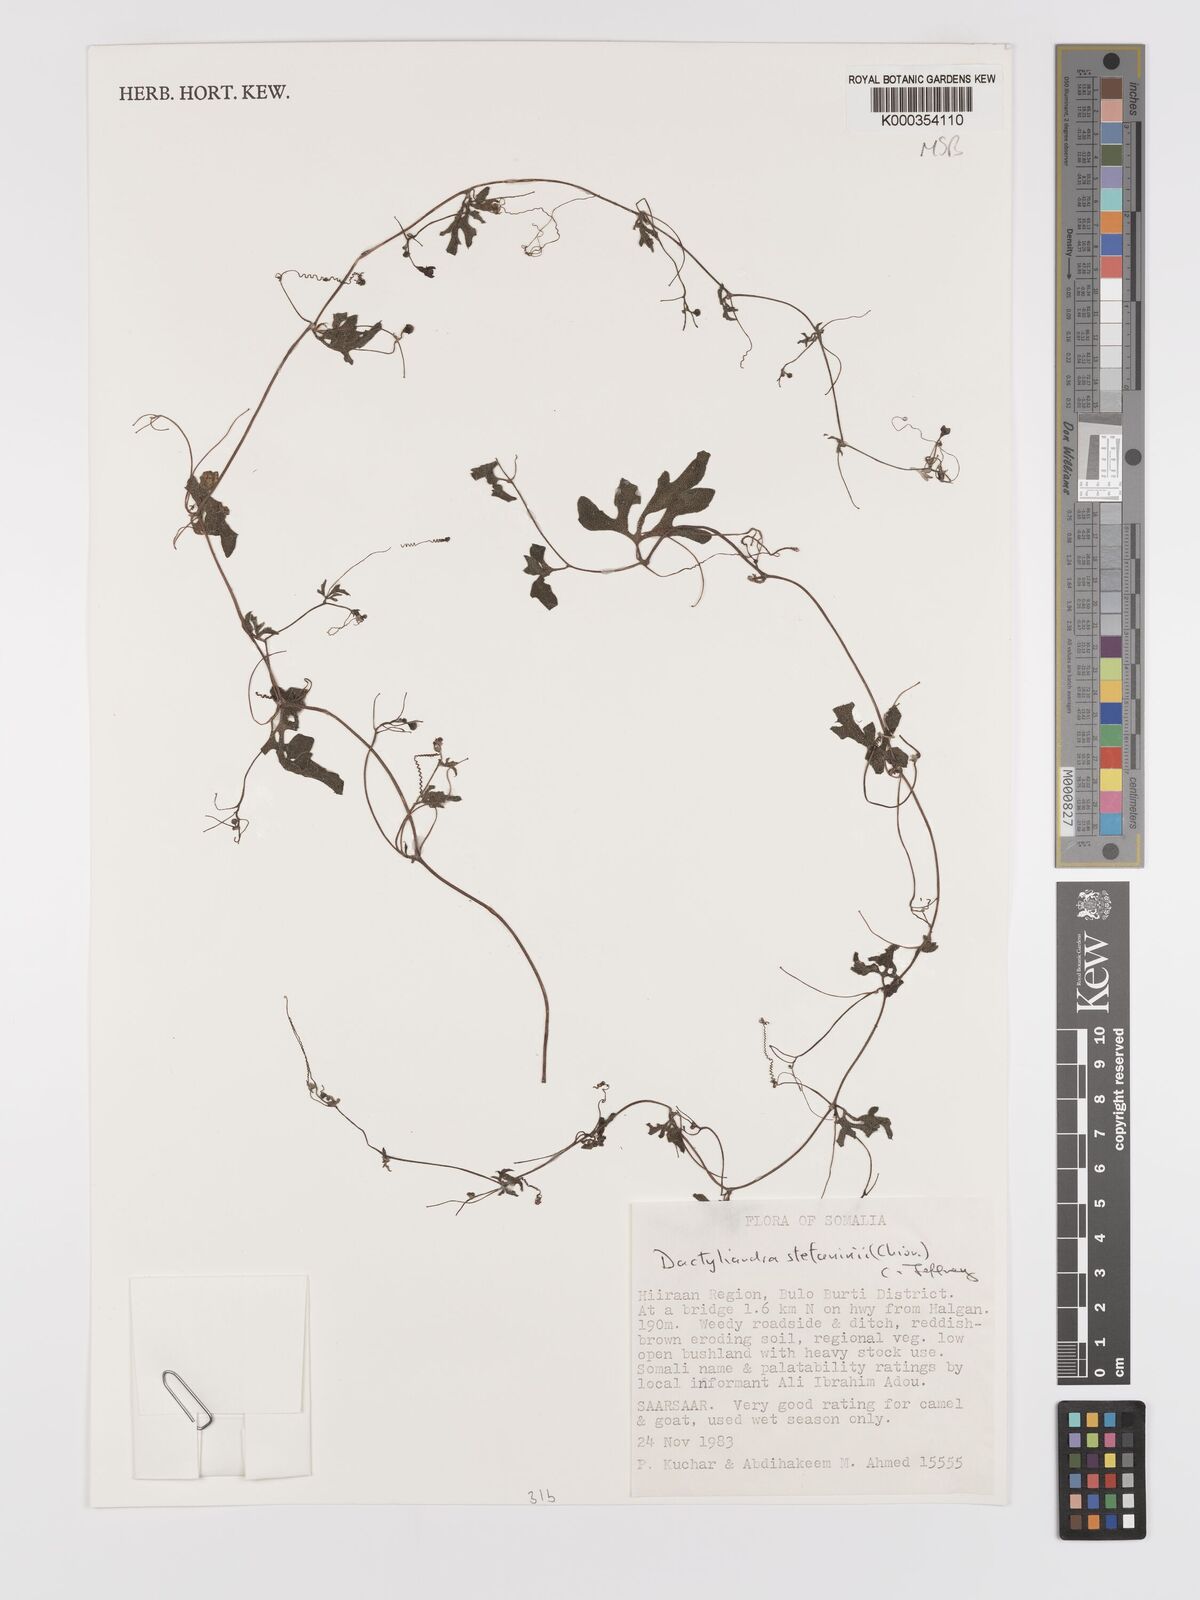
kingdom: Plantae
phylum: Tracheophyta
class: Magnoliopsida
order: Cucurbitales
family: Cucurbitaceae
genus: Dactyliandra
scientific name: Dactyliandra stefaninii
